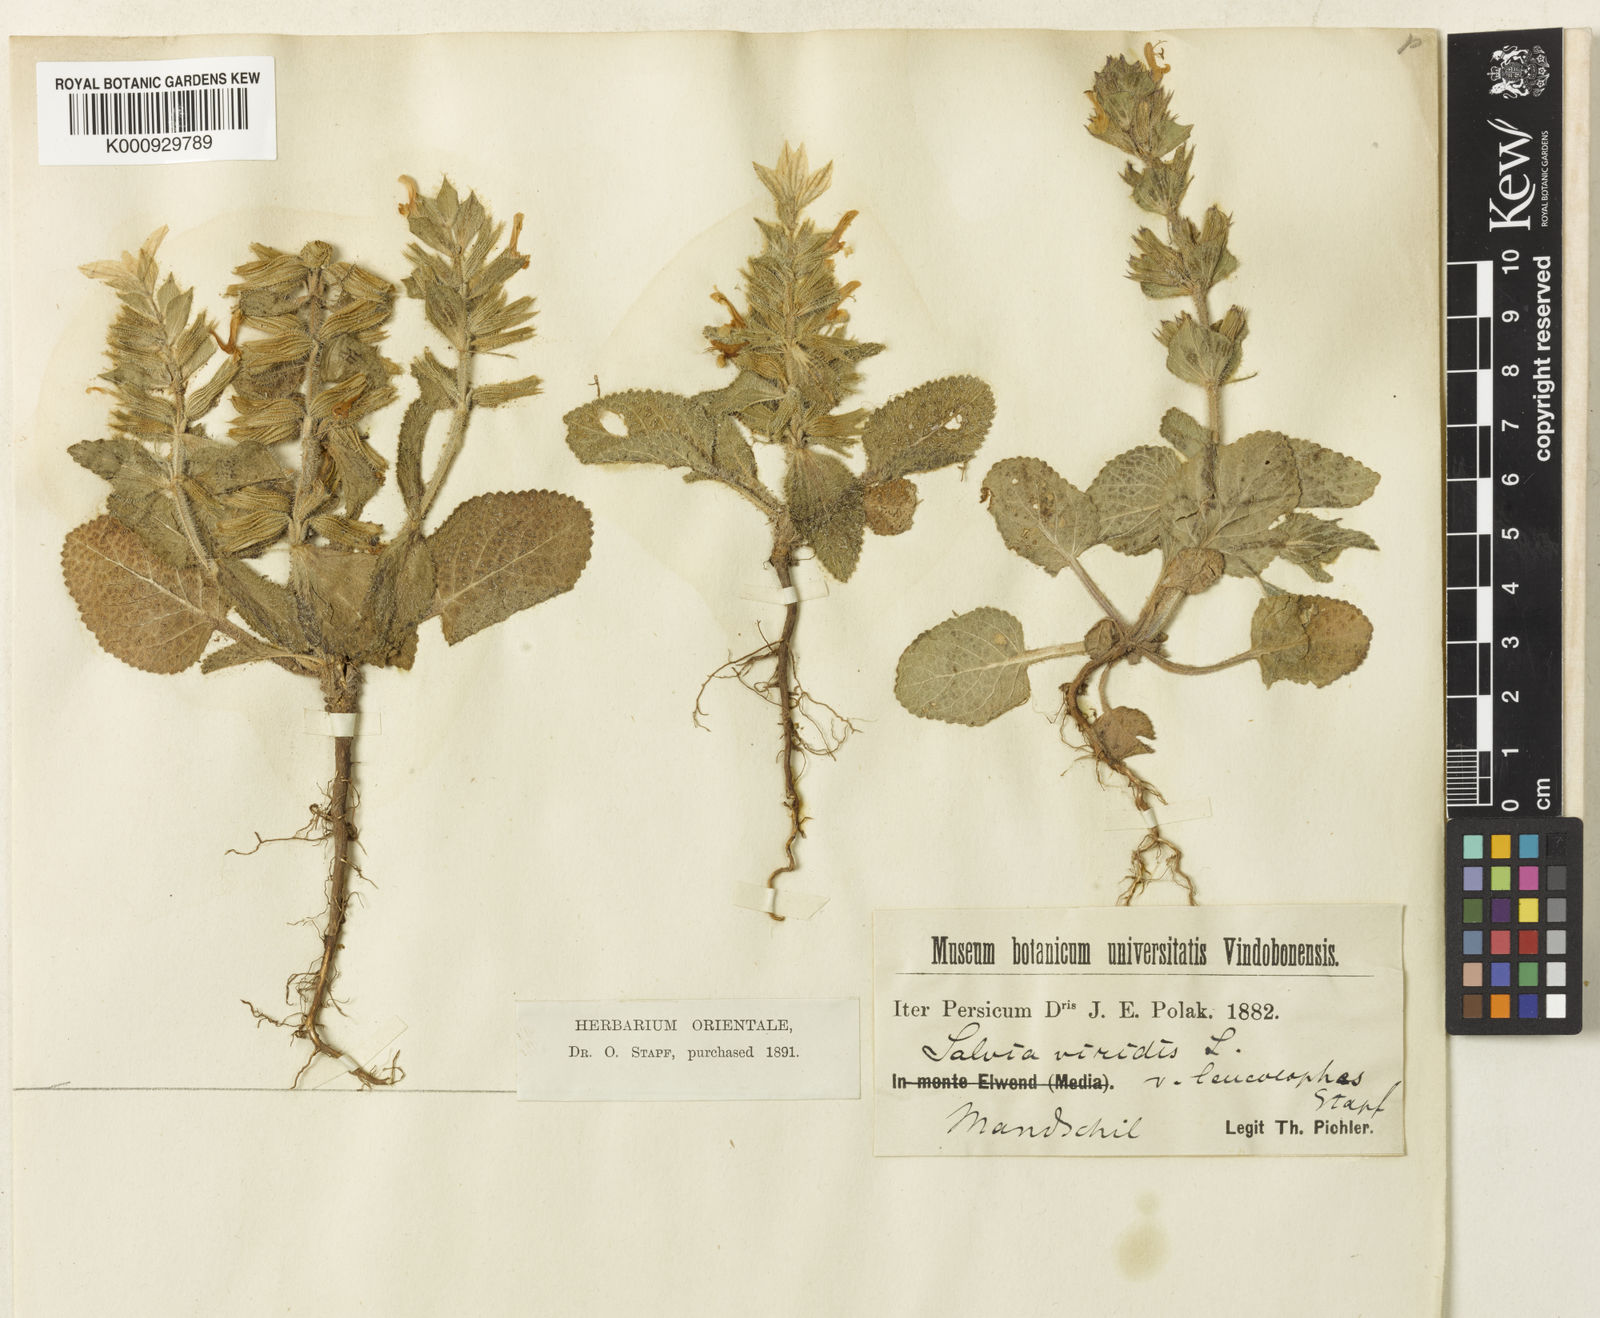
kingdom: Plantae
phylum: Tracheophyta
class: Magnoliopsida
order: Lamiales
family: Lamiaceae
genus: Salvia
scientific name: Salvia viridis
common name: Annual clary
